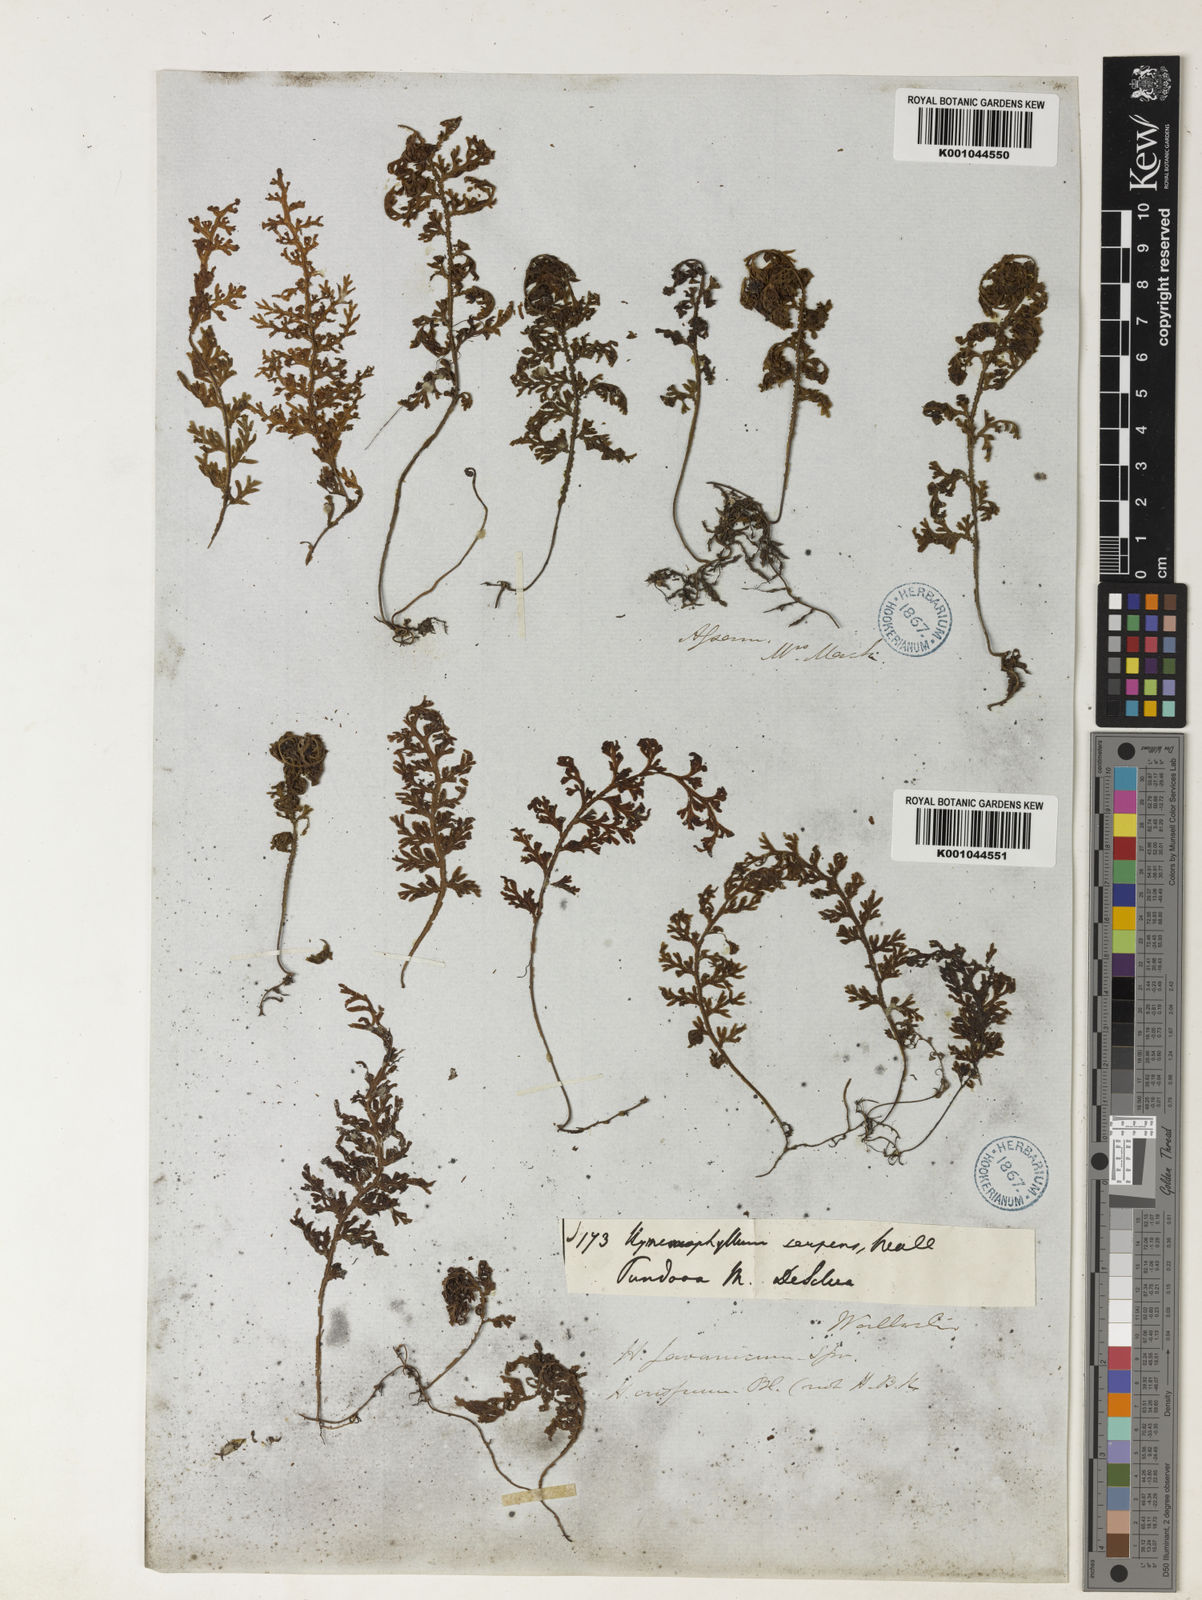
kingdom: Plantae
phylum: Tracheophyta
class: Polypodiopsida
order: Hymenophyllales
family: Hymenophyllaceae
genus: Hymenophyllum
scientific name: Hymenophyllum javanicum
